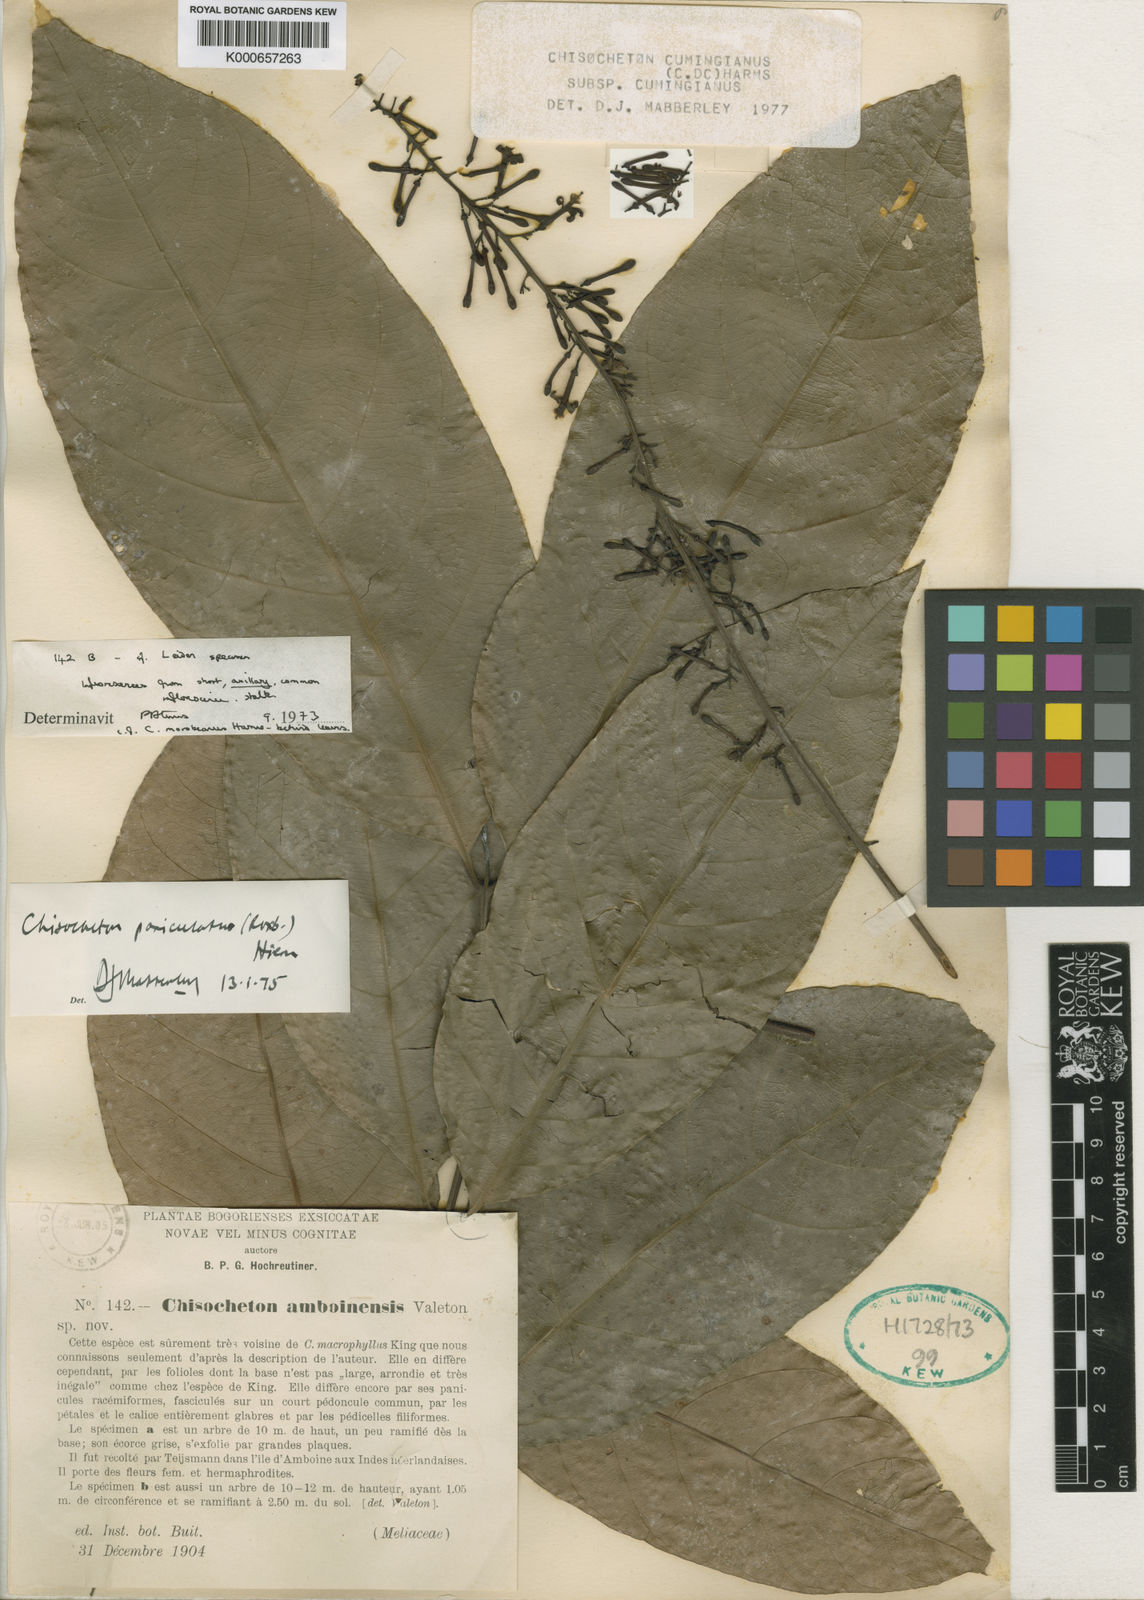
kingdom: Plantae
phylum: Tracheophyta
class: Magnoliopsida
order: Sapindales
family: Meliaceae
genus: Chisocheton
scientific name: Chisocheton cumingianus
